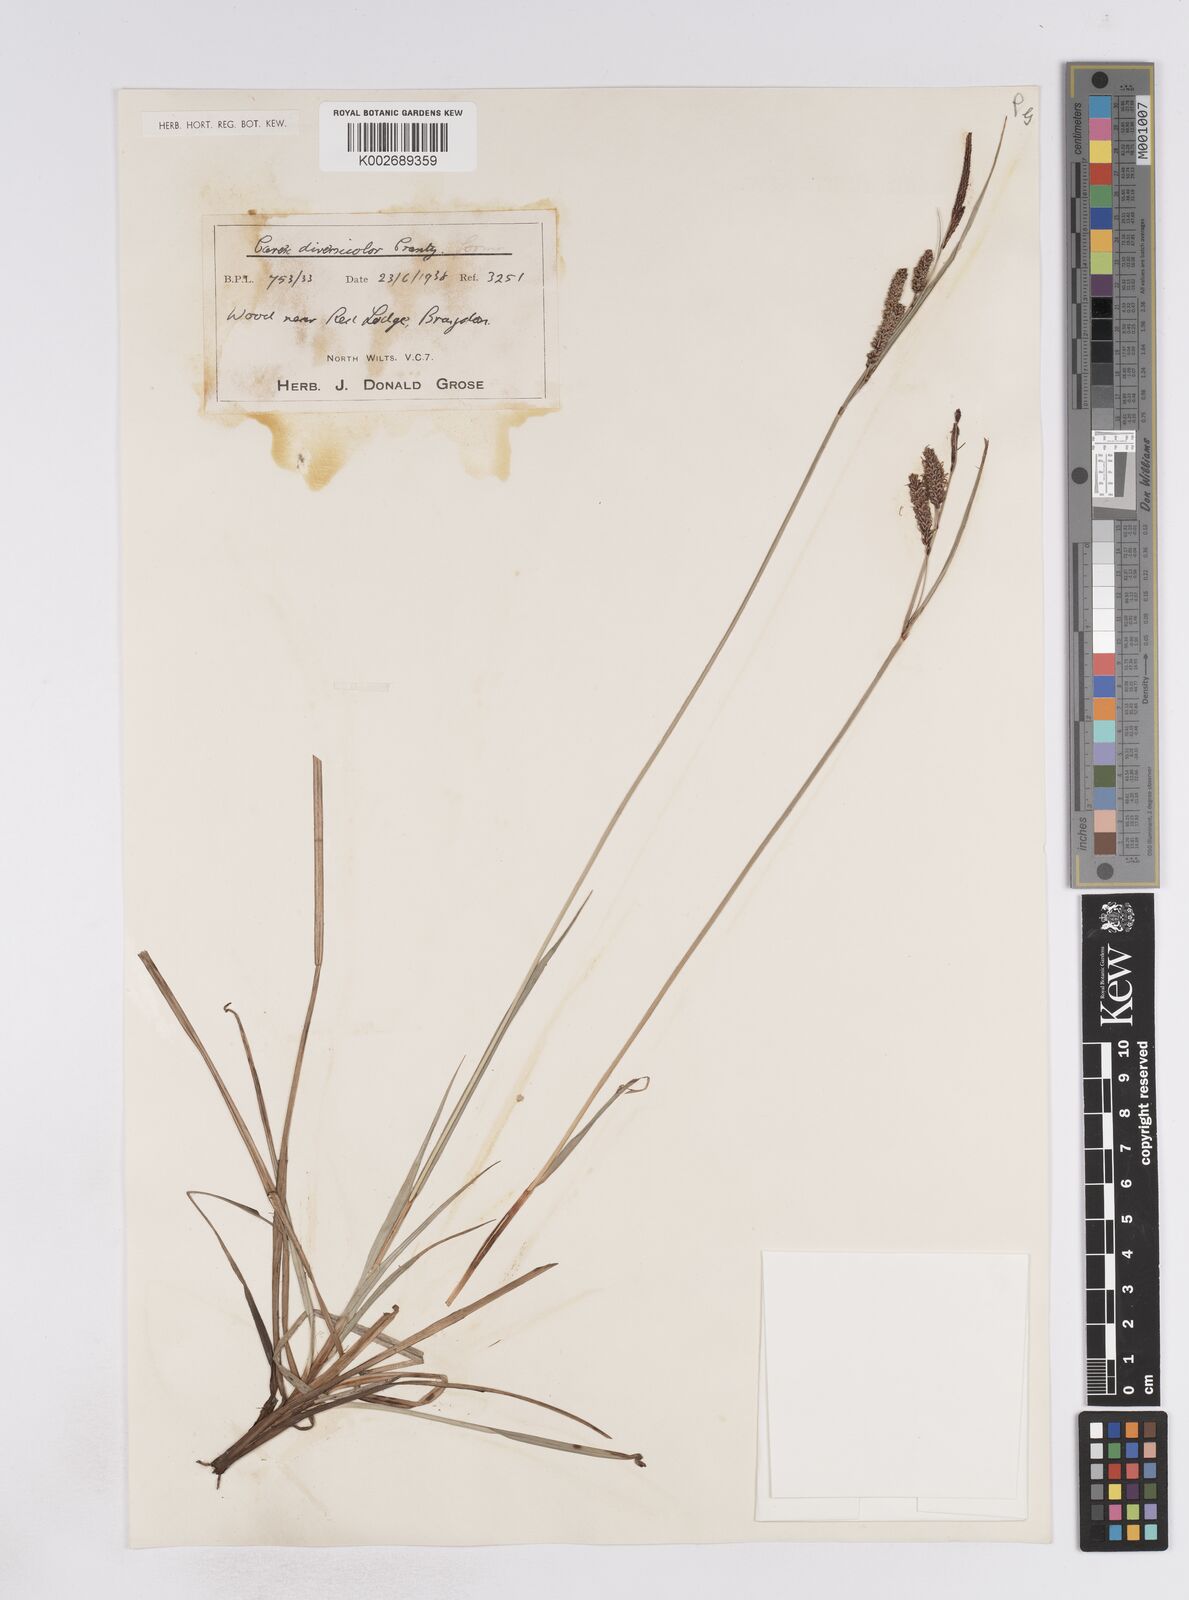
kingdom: Plantae
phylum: Tracheophyta
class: Liliopsida
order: Poales
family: Cyperaceae
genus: Carex
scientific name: Carex flacca
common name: Glaucous sedge
